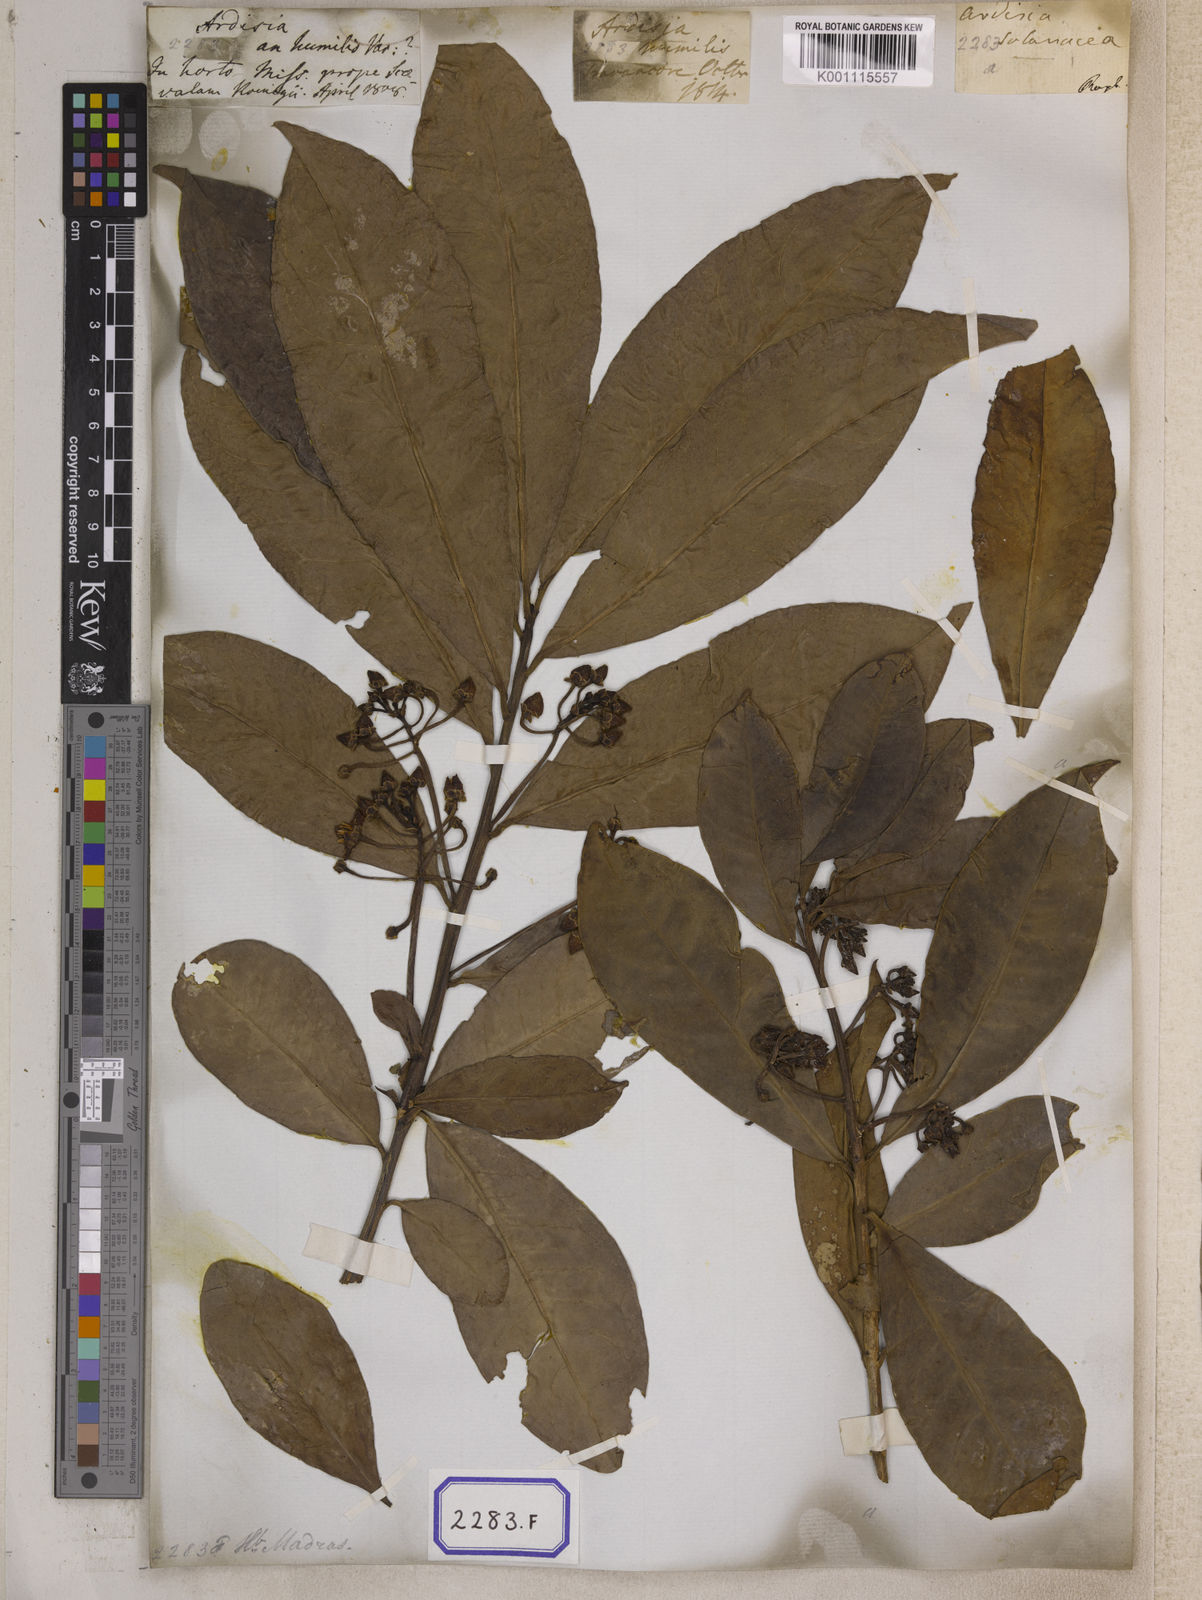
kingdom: Plantae
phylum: Tracheophyta
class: Magnoliopsida
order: Ericales
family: Primulaceae
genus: Ardisia
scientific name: Ardisia humilis
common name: Low shoebutton
